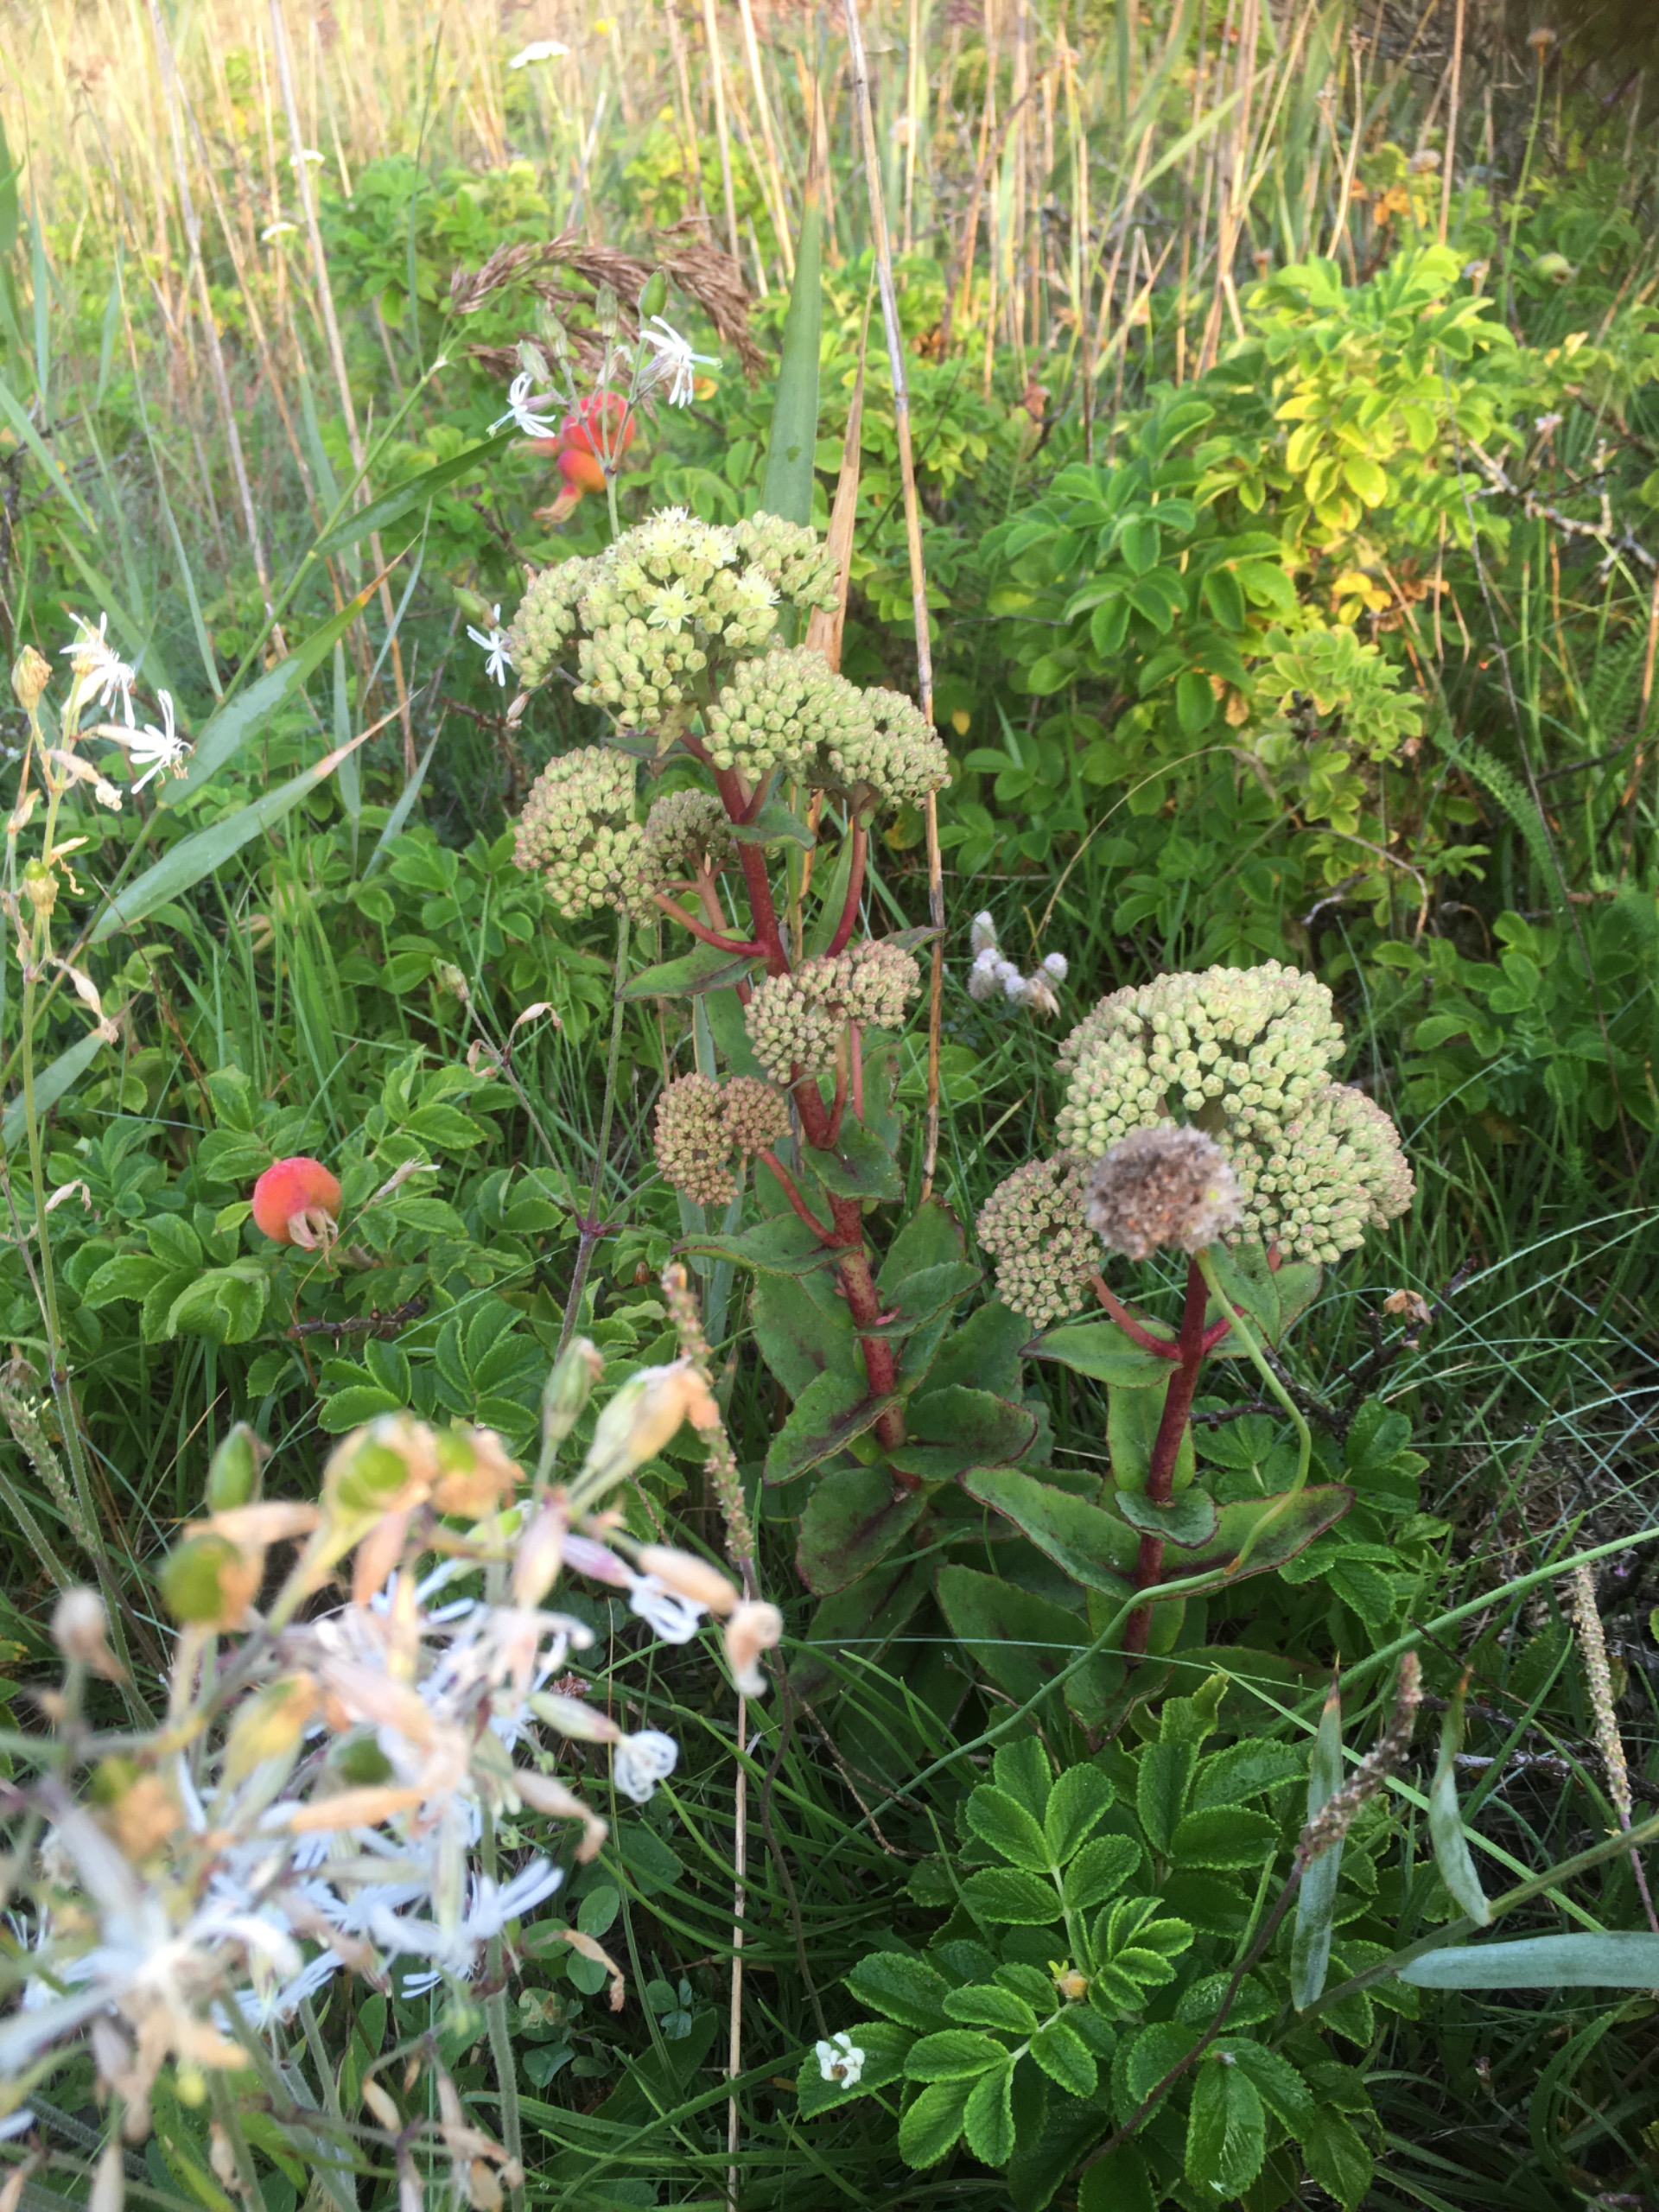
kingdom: Plantae
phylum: Tracheophyta
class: Magnoliopsida
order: Saxifragales
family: Crassulaceae
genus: Hylotelephium
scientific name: Hylotelephium maximum
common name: Almindelig sankthansurt
